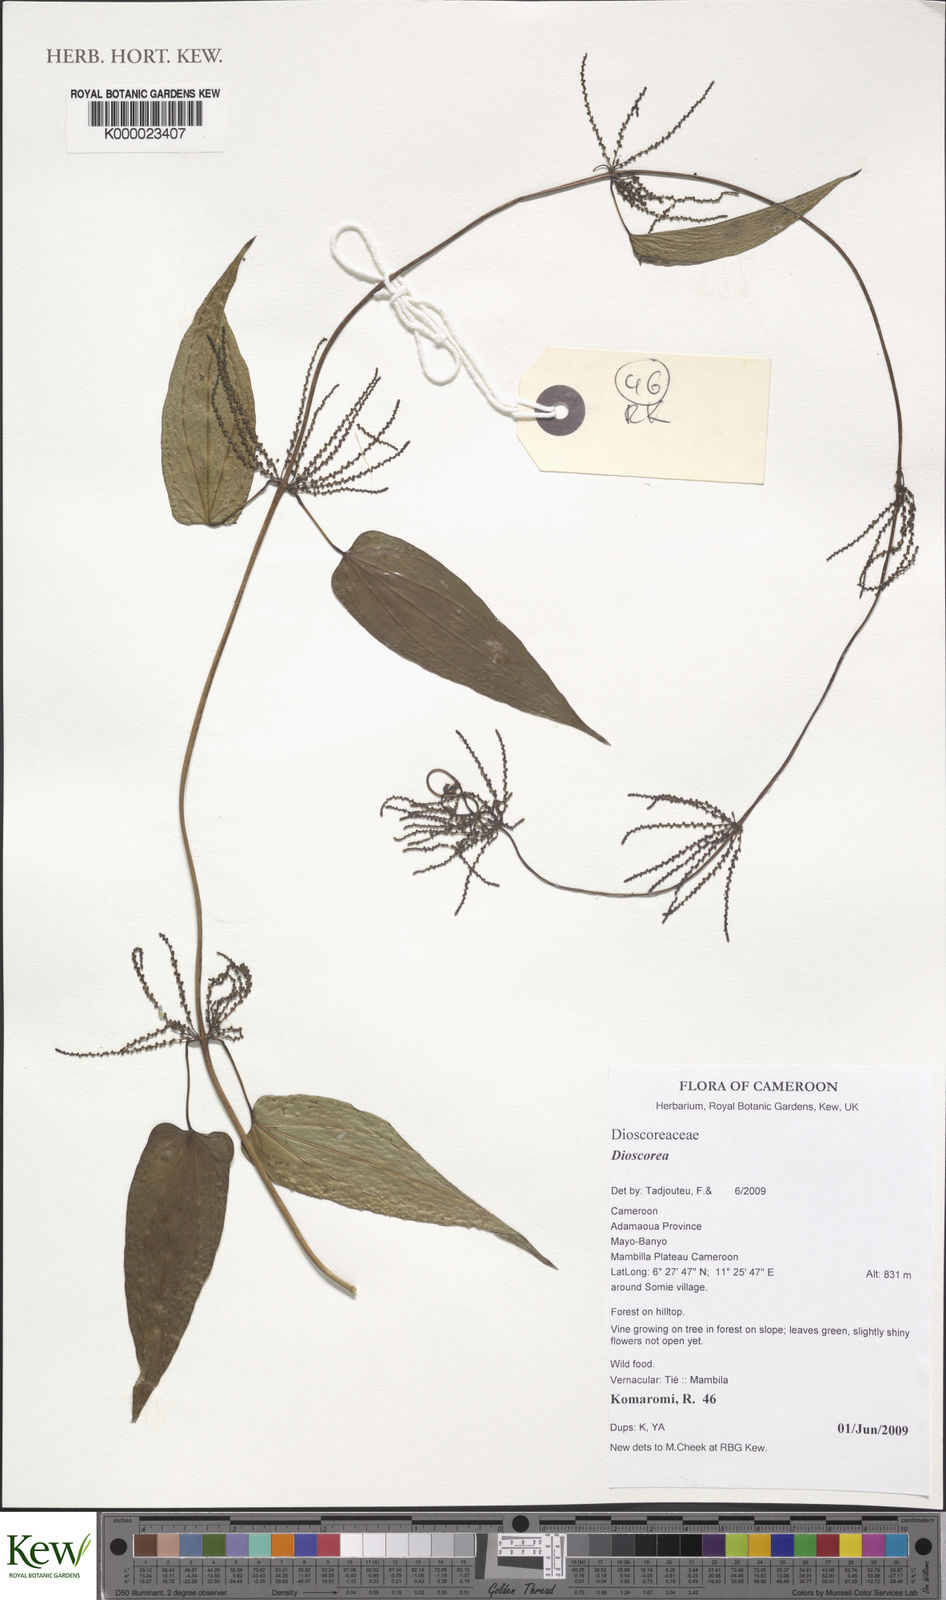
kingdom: Plantae
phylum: Tracheophyta
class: Liliopsida
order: Dioscoreales
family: Dioscoreaceae
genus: Dioscorea
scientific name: Dioscorea
